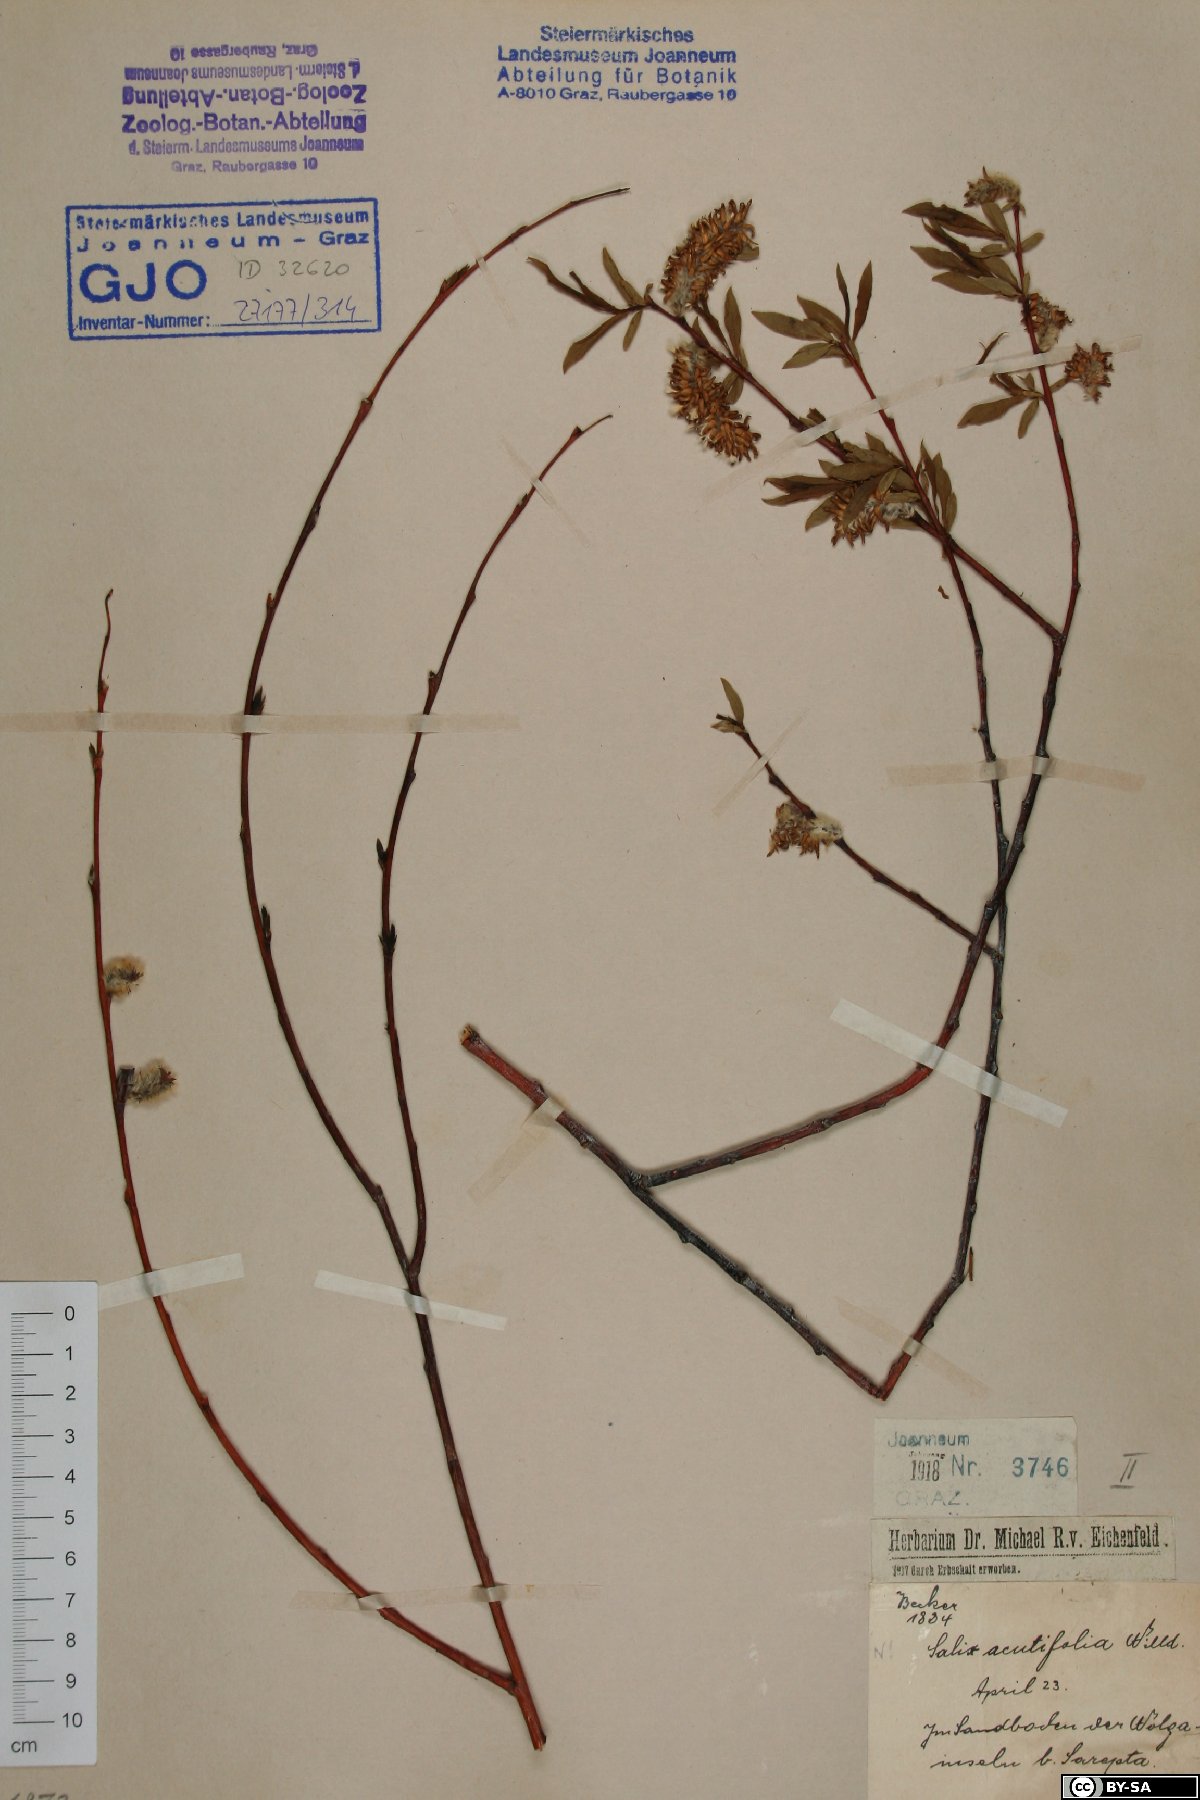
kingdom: Plantae
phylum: Tracheophyta
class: Magnoliopsida
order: Malpighiales
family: Salicaceae
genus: Salix
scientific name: Salix acutifolia
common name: Siberian violet-willow
